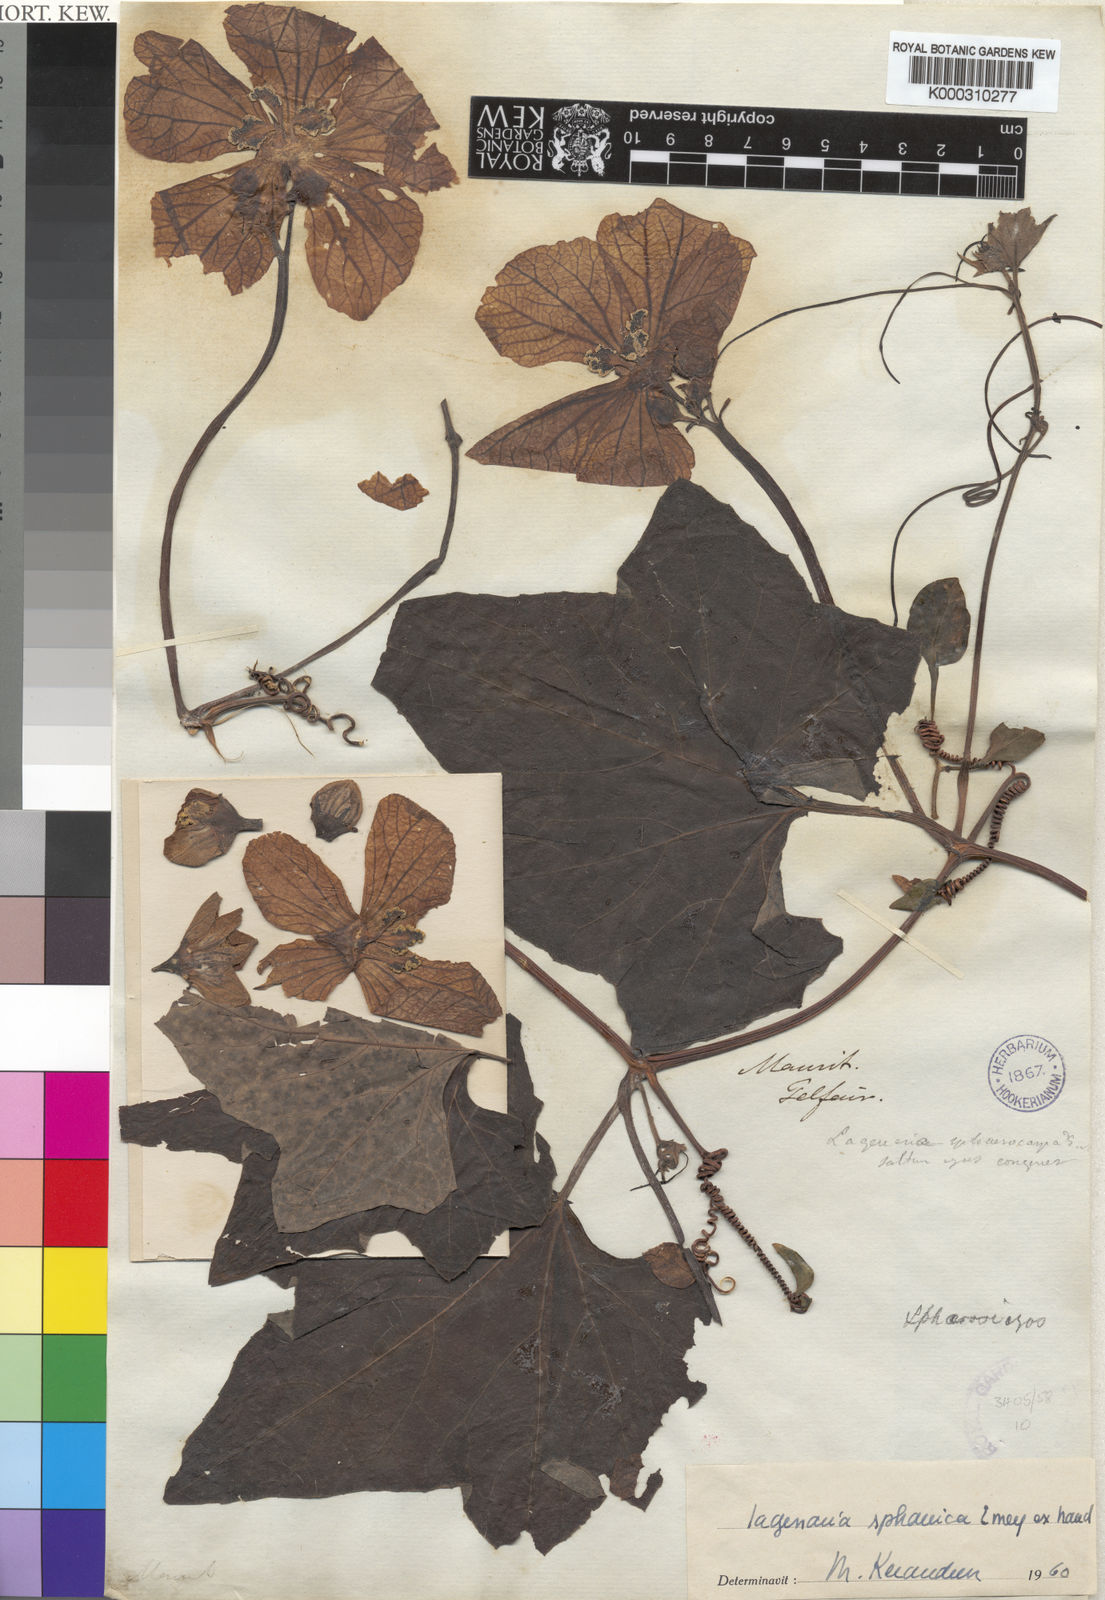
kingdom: Plantae
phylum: Tracheophyta
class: Magnoliopsida
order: Cucurbitales
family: Cucurbitaceae
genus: Lagenaria
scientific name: Lagenaria sphaerica
